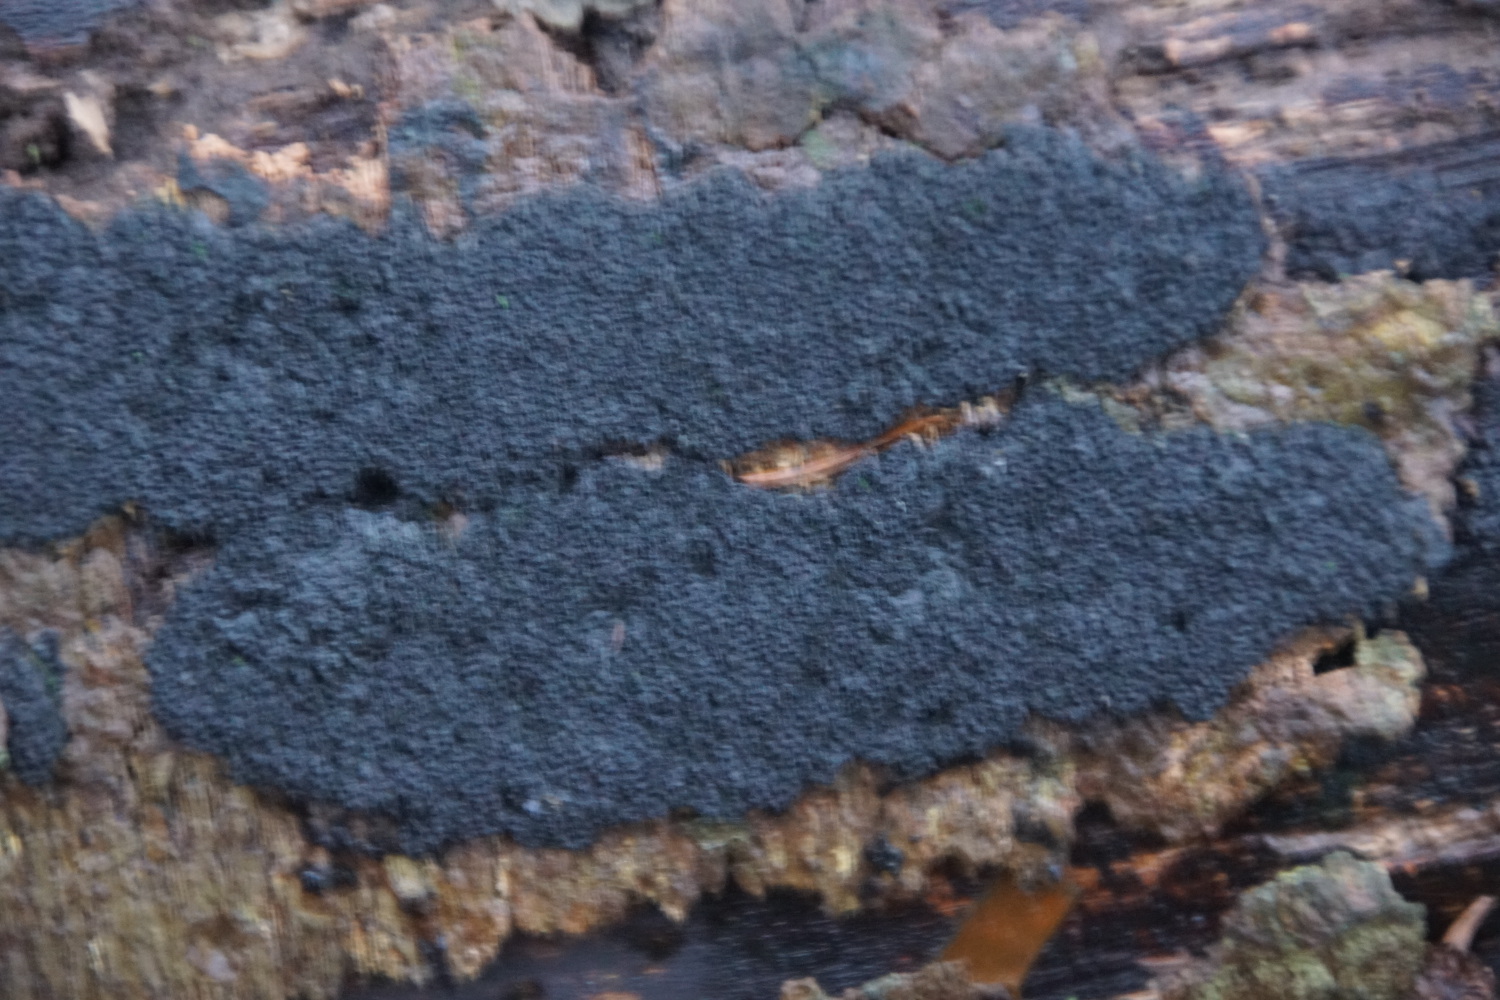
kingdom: Fungi
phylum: Ascomycota
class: Sordariomycetes
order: Xylariales
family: Diatrypaceae
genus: Eutypa
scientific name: Eutypa spinosa
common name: grov kulskorpe
